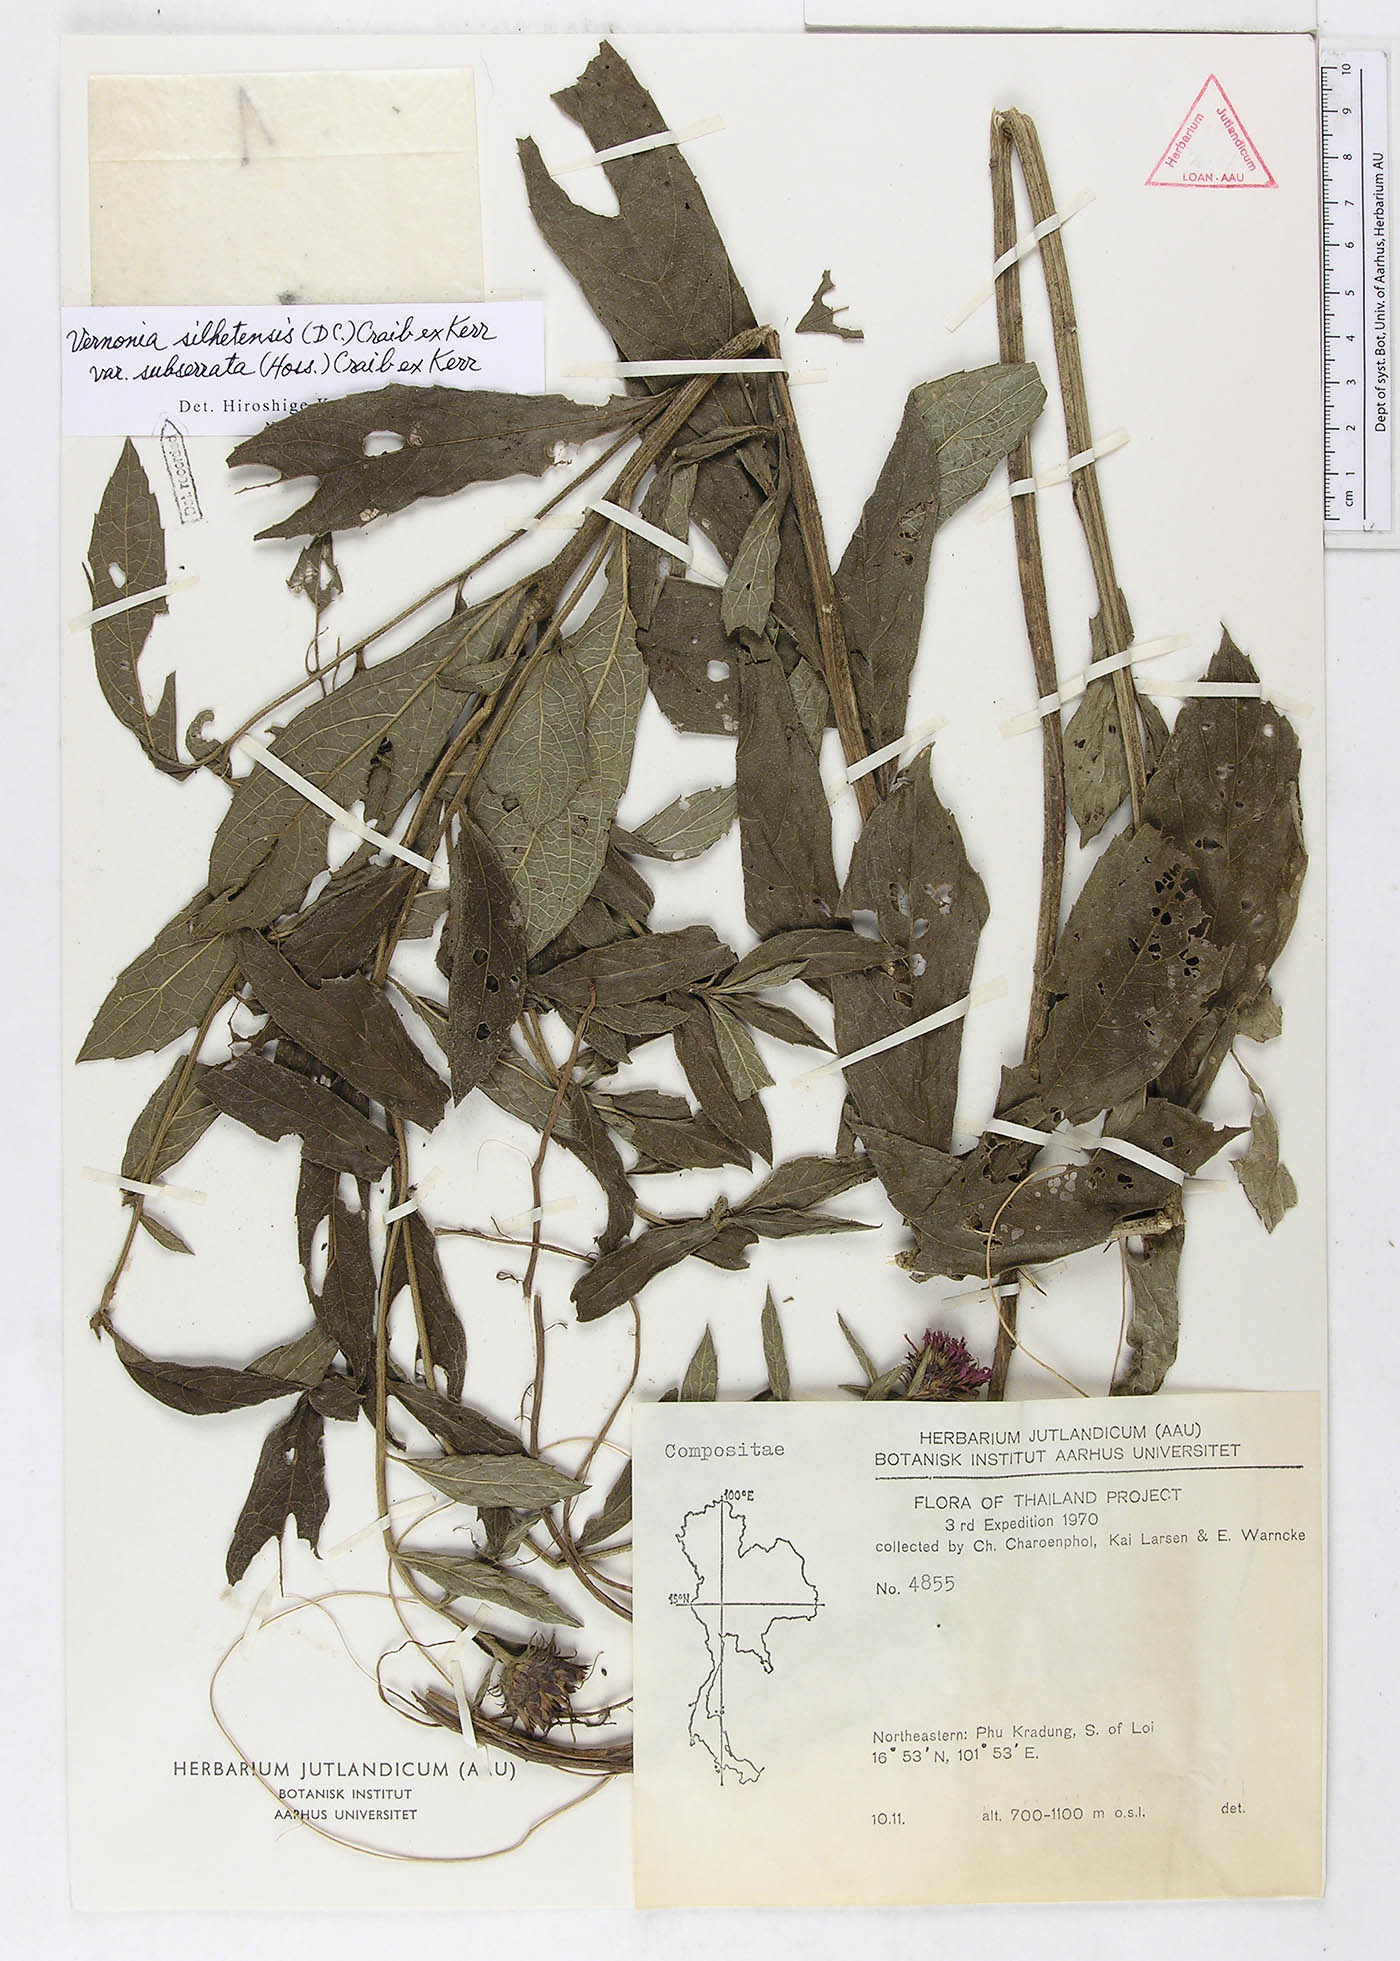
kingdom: Plantae
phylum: Tracheophyta
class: Magnoliopsida
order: Asterales
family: Asteraceae
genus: Acilepis
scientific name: Acilepis silhetensis
